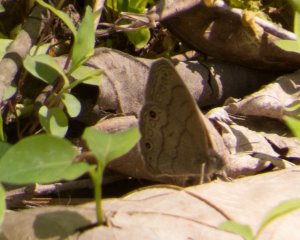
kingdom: Animalia
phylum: Arthropoda
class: Insecta
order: Lepidoptera
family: Nymphalidae
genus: Hermeuptychia
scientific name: Hermeuptychia hermes
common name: Carolina Satyr
